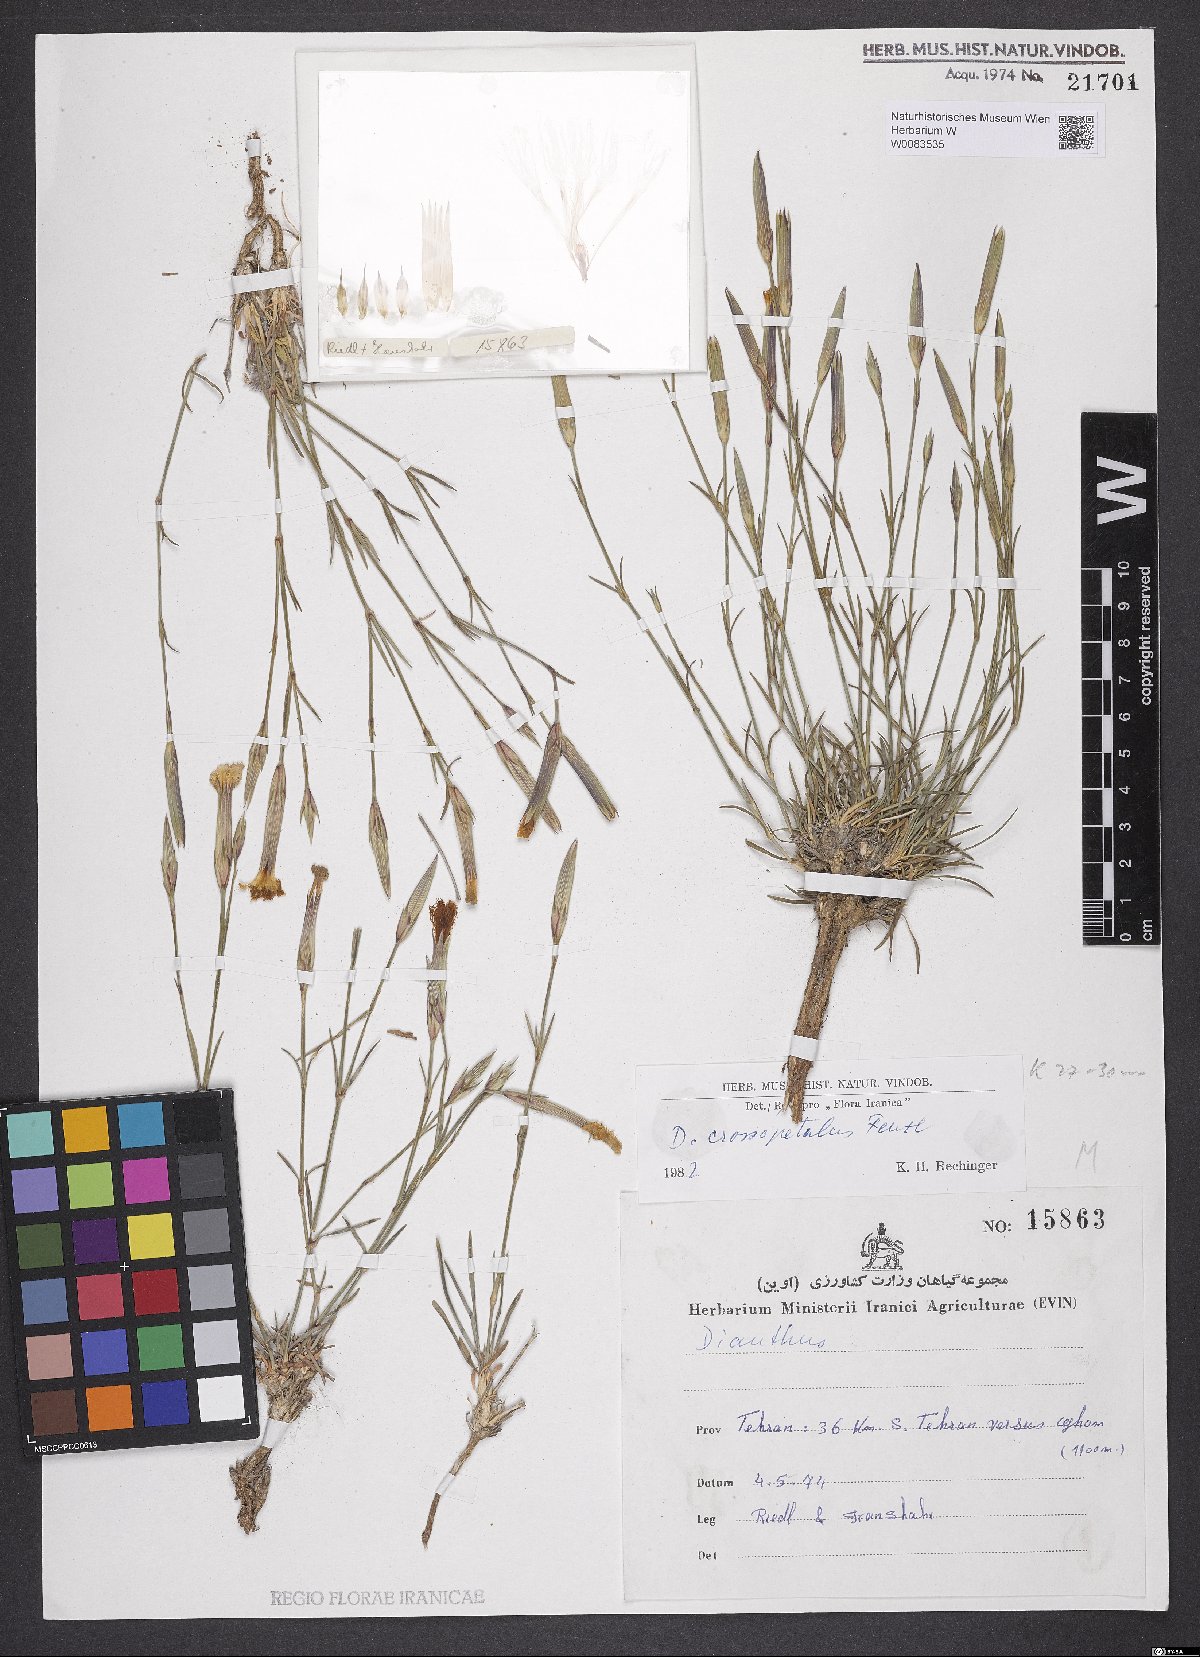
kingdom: Plantae
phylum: Tracheophyta
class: Magnoliopsida
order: Caryophyllales
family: Caryophyllaceae
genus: Dianthus
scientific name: Dianthus crossopetalus
